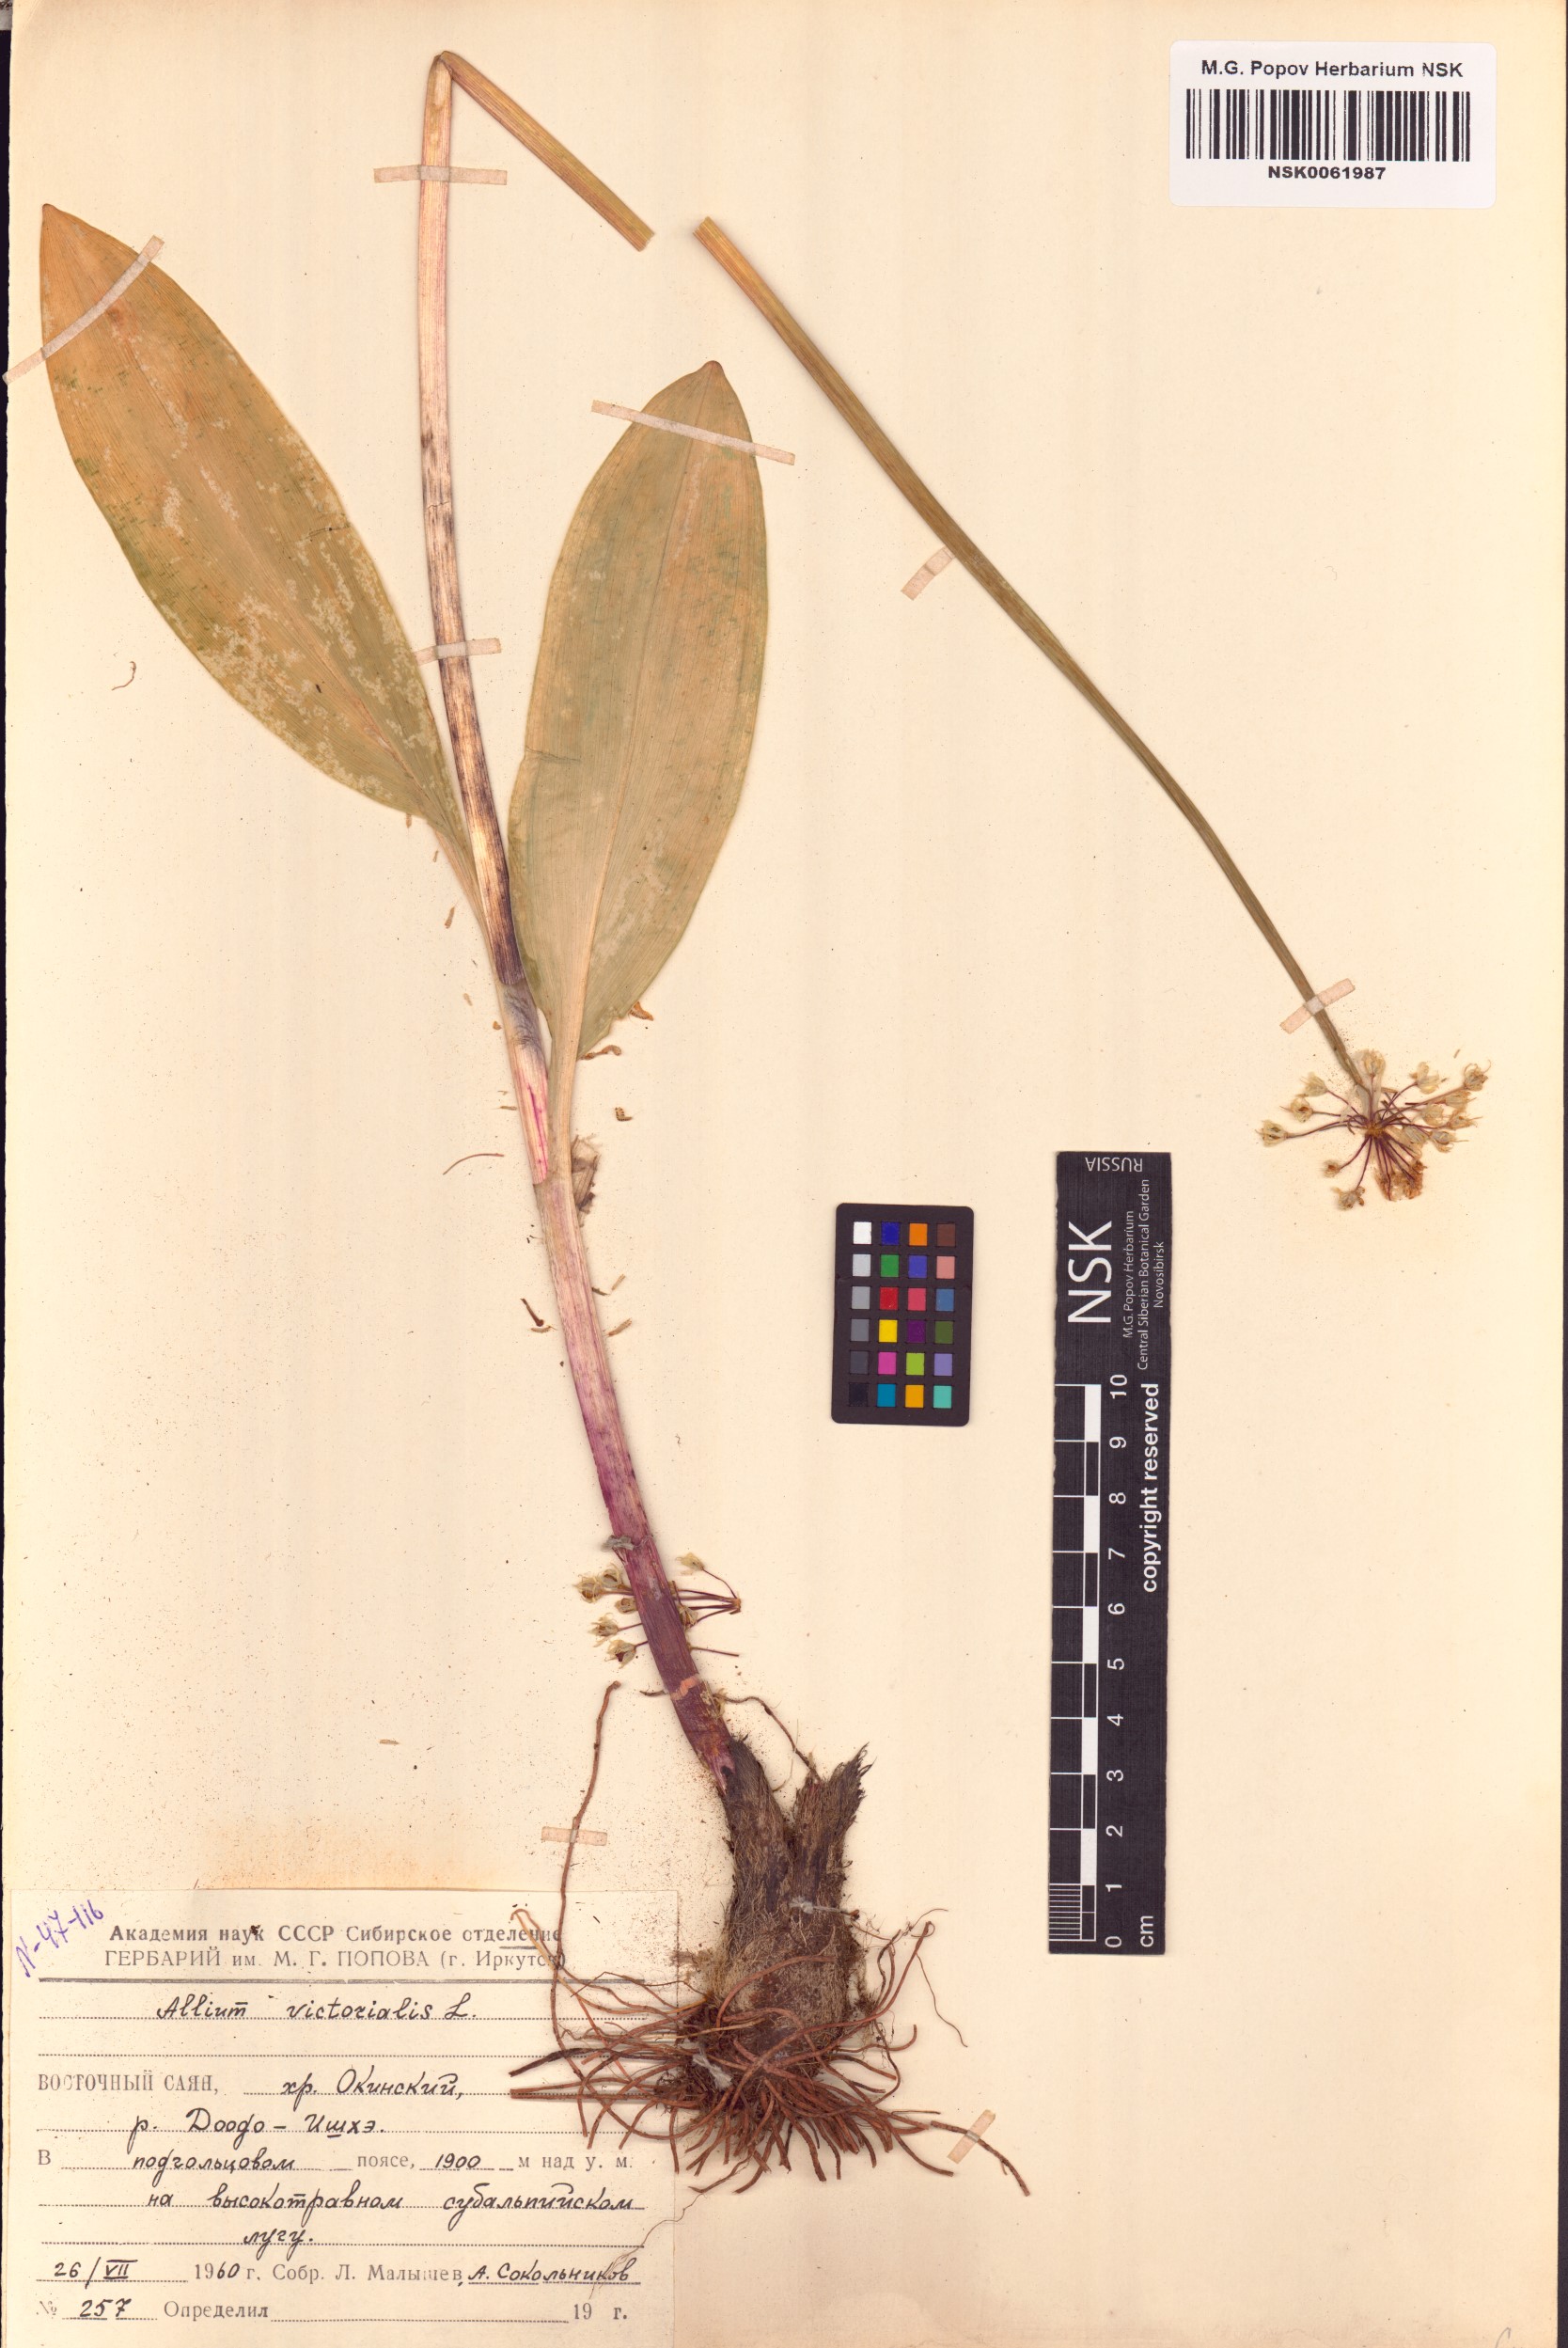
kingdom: Plantae
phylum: Tracheophyta
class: Liliopsida
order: Asparagales
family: Amaryllidaceae
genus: Allium
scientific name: Allium victorialis
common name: Alpine leek
